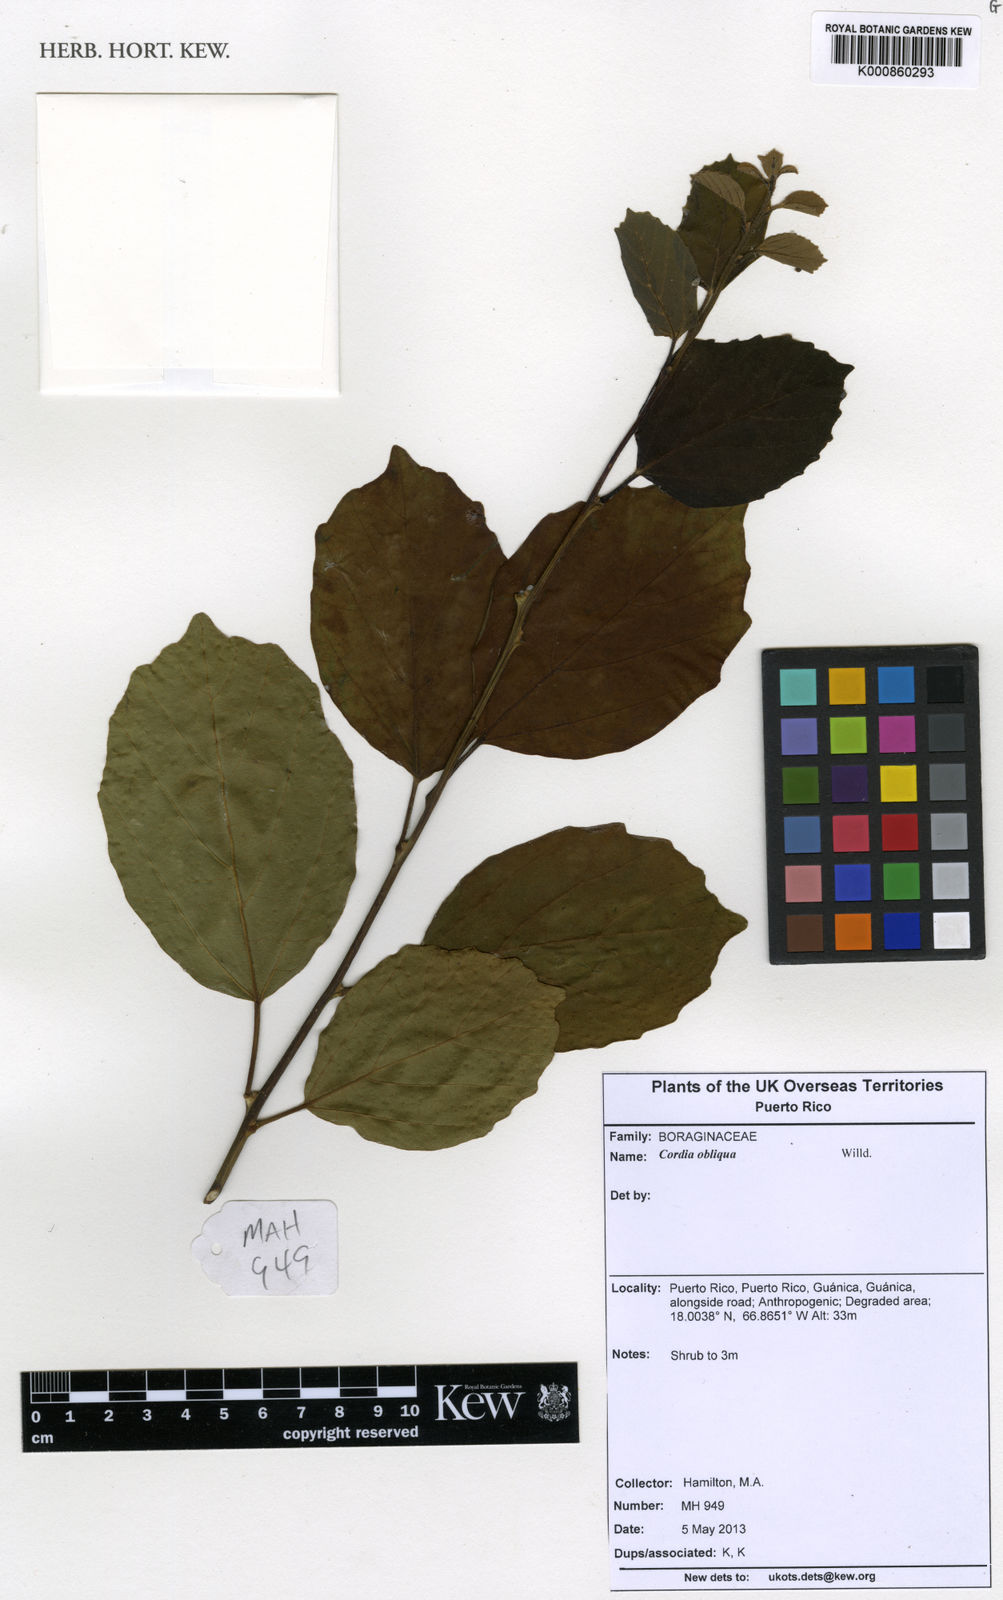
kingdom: Plantae
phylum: Tracheophyta
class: Magnoliopsida
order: Boraginales
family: Cordiaceae
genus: Cordia
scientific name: Cordia dichotoma
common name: Fragrant manjack
